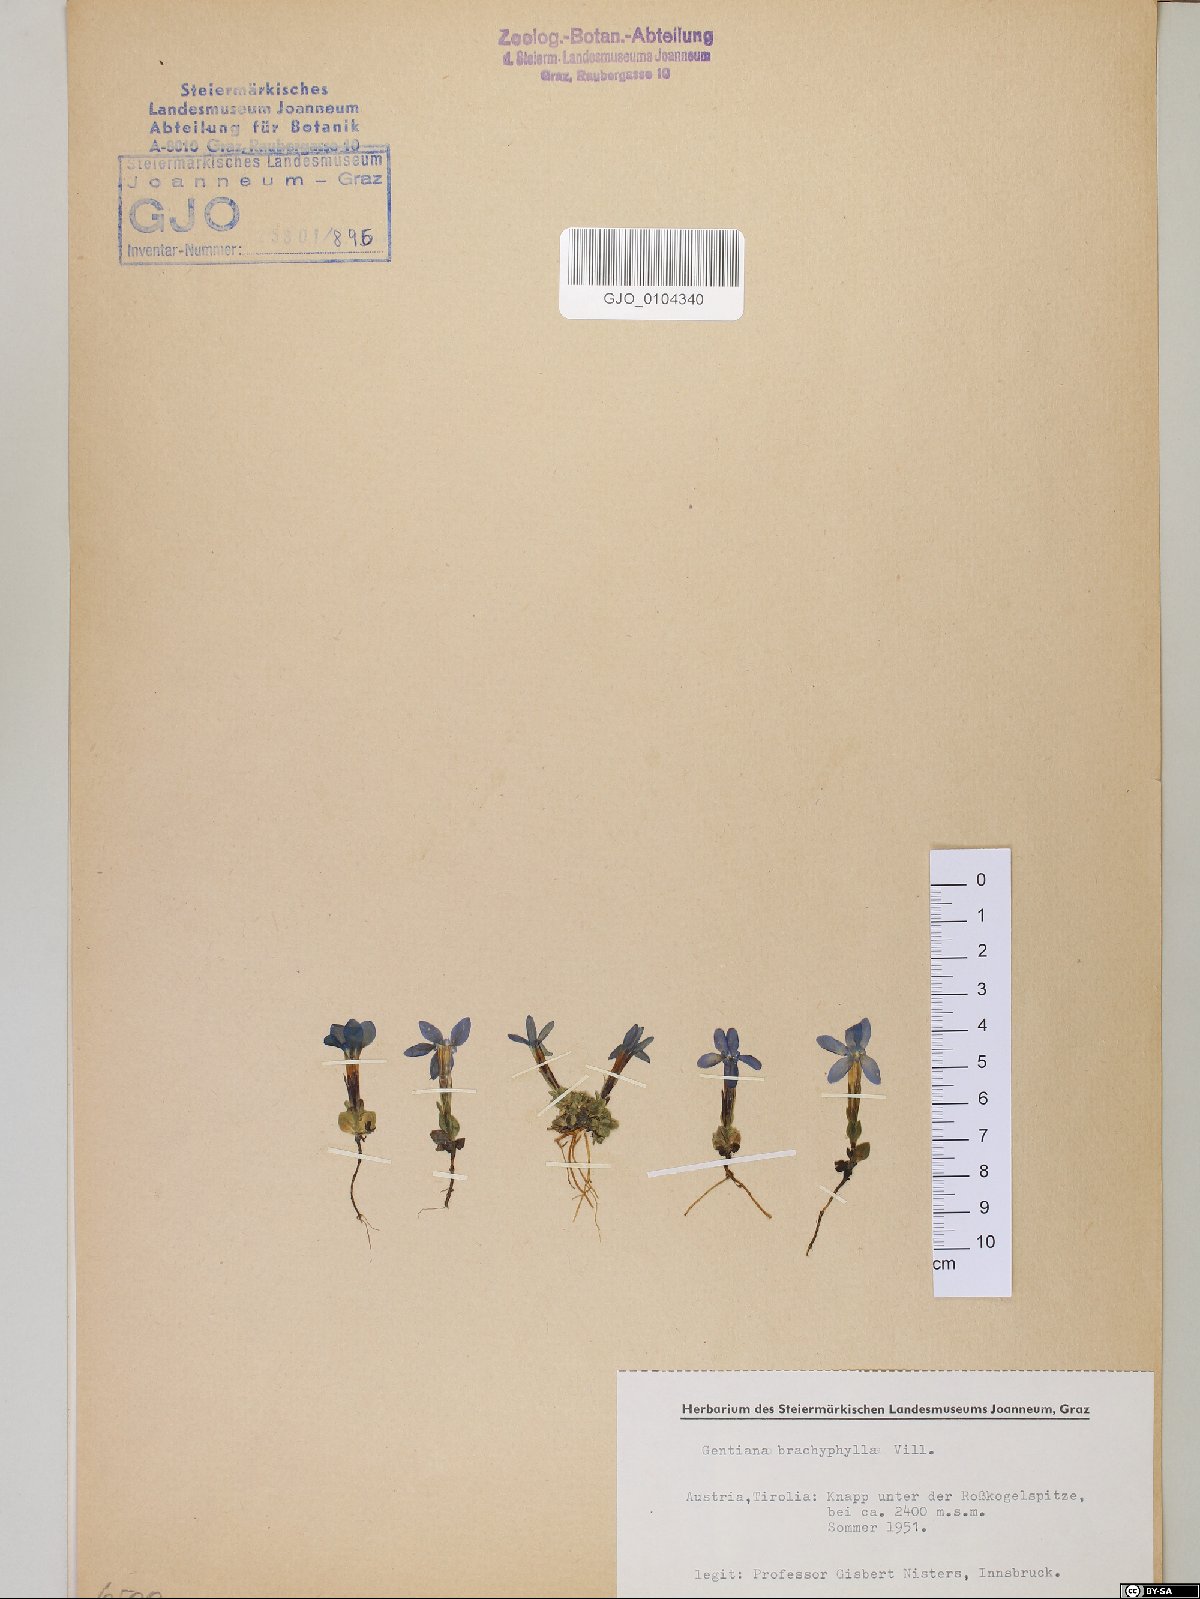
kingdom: Plantae
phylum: Tracheophyta
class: Magnoliopsida
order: Gentianales
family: Gentianaceae
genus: Gentiana
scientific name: Gentiana brachyphylla
